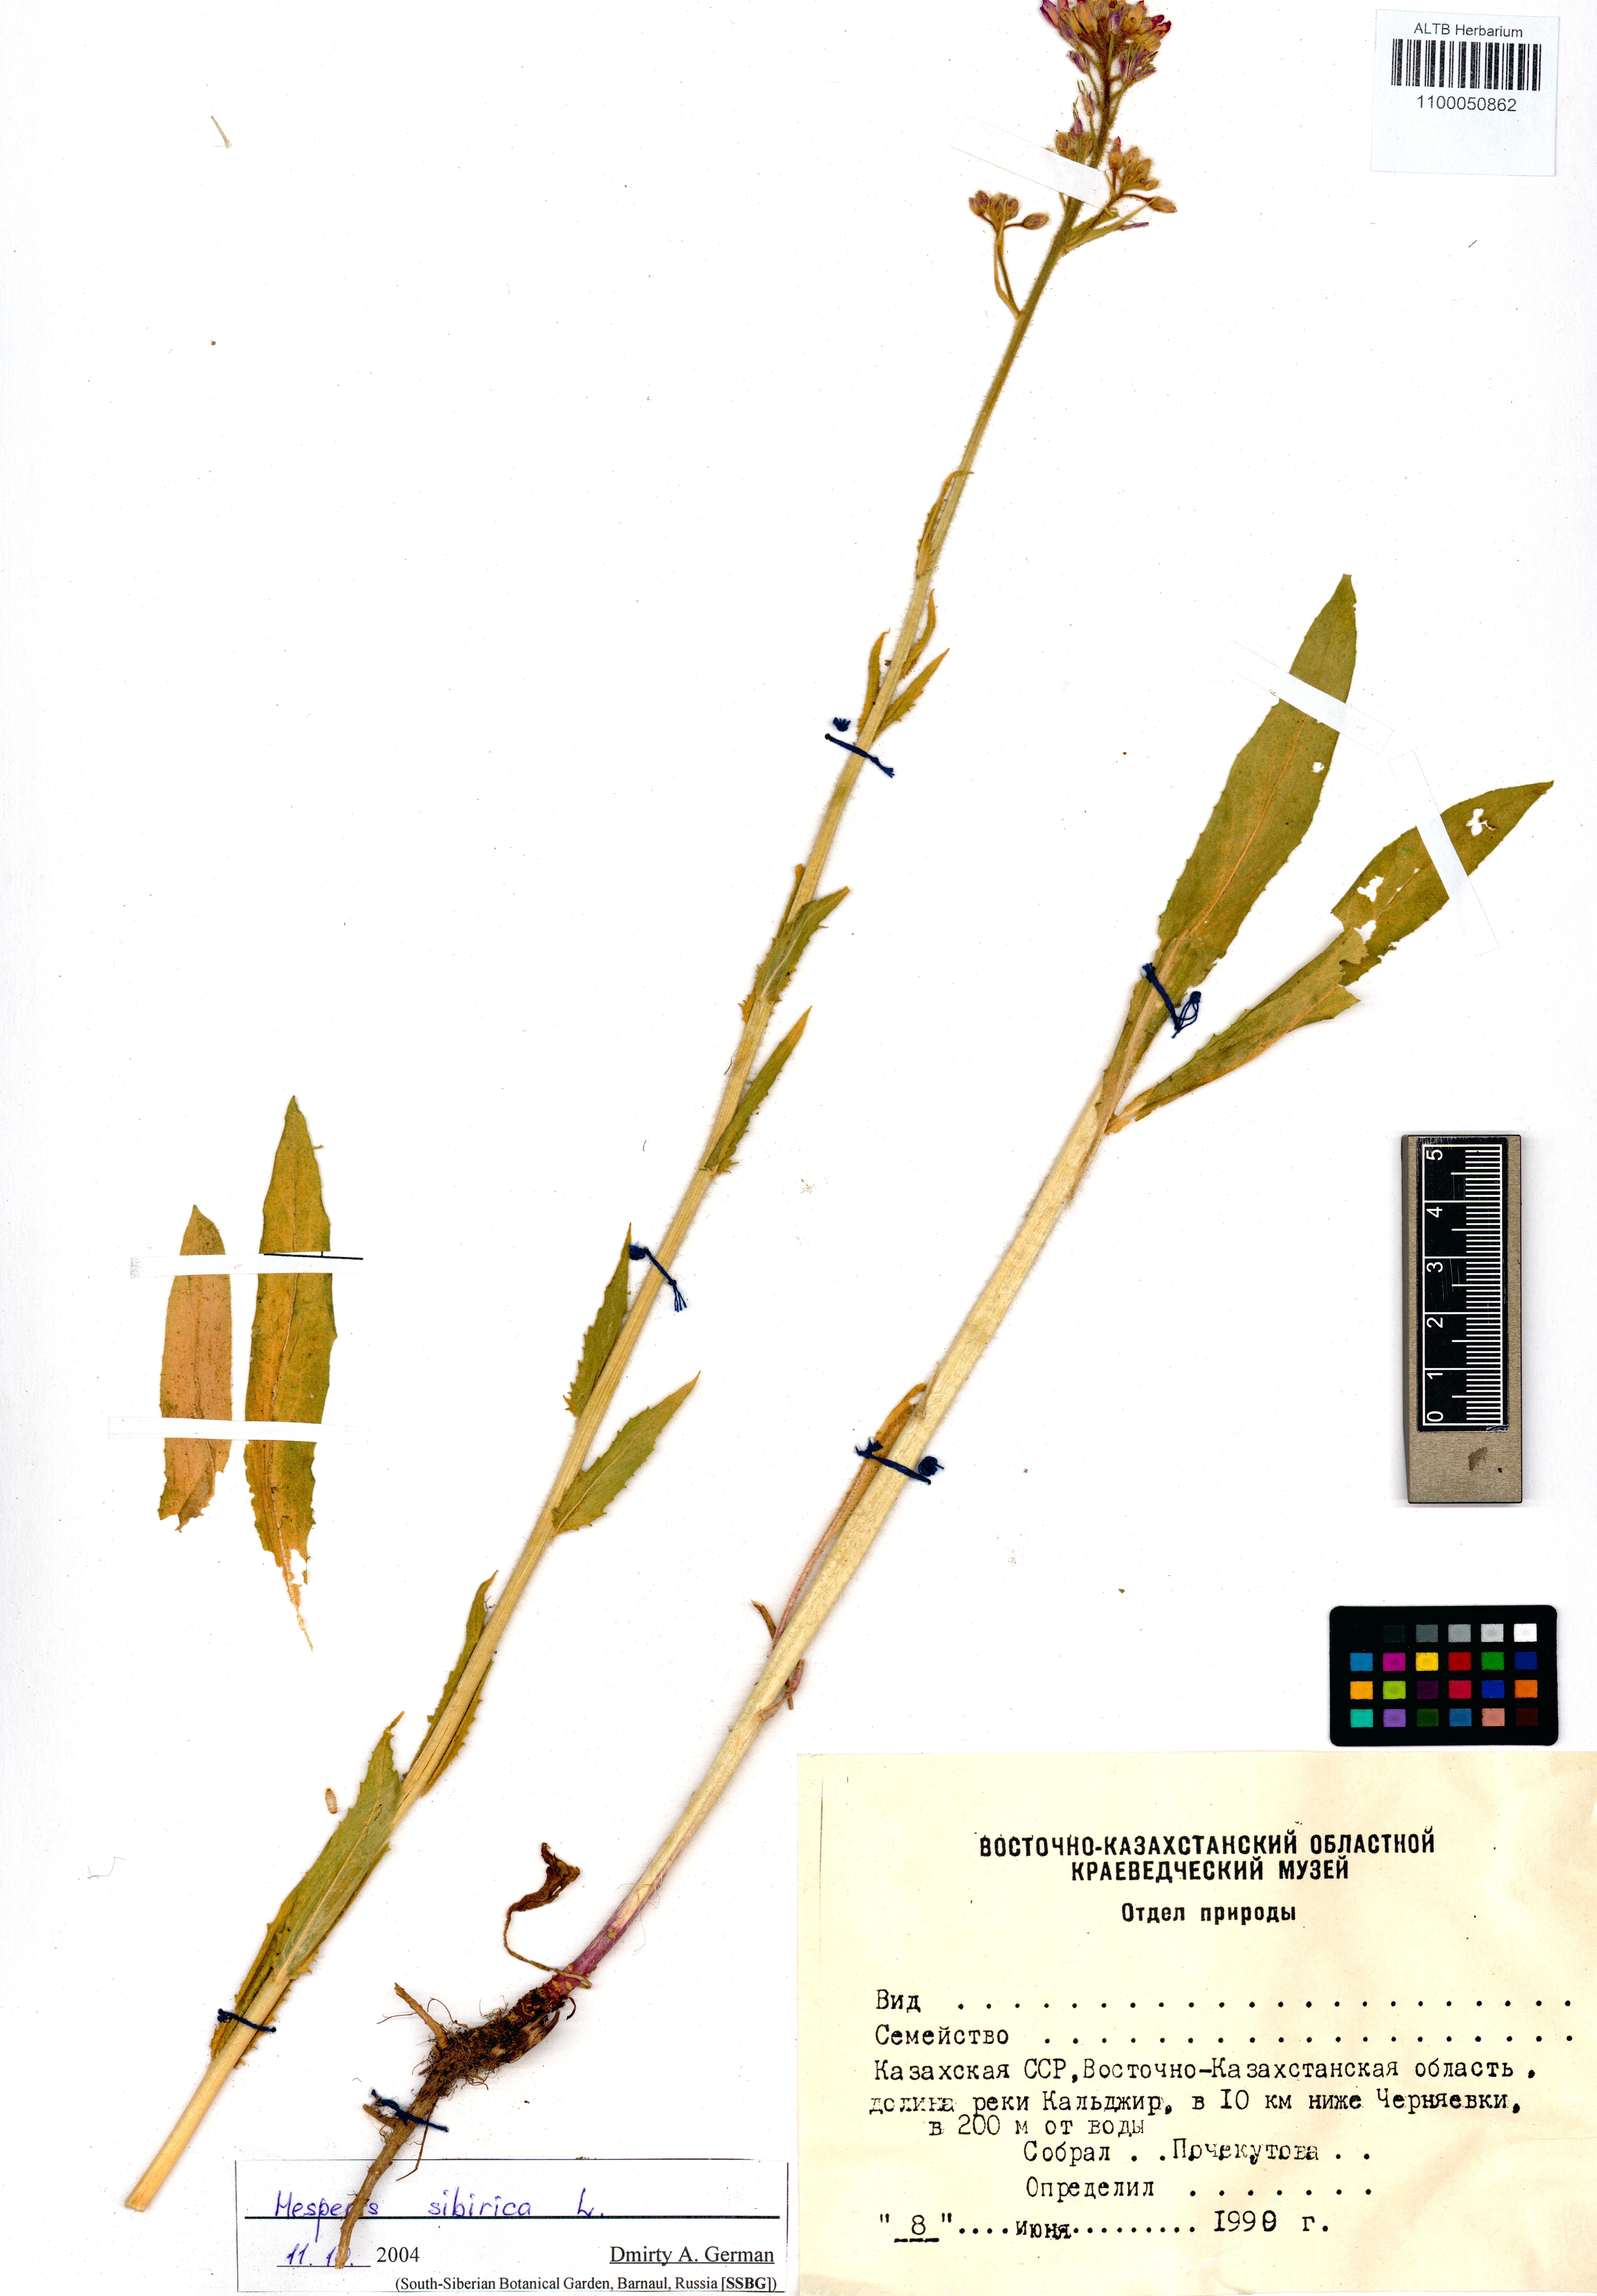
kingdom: Plantae
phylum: Tracheophyta
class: Magnoliopsida
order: Brassicales
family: Brassicaceae
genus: Hesperis
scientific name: Hesperis sibirica
